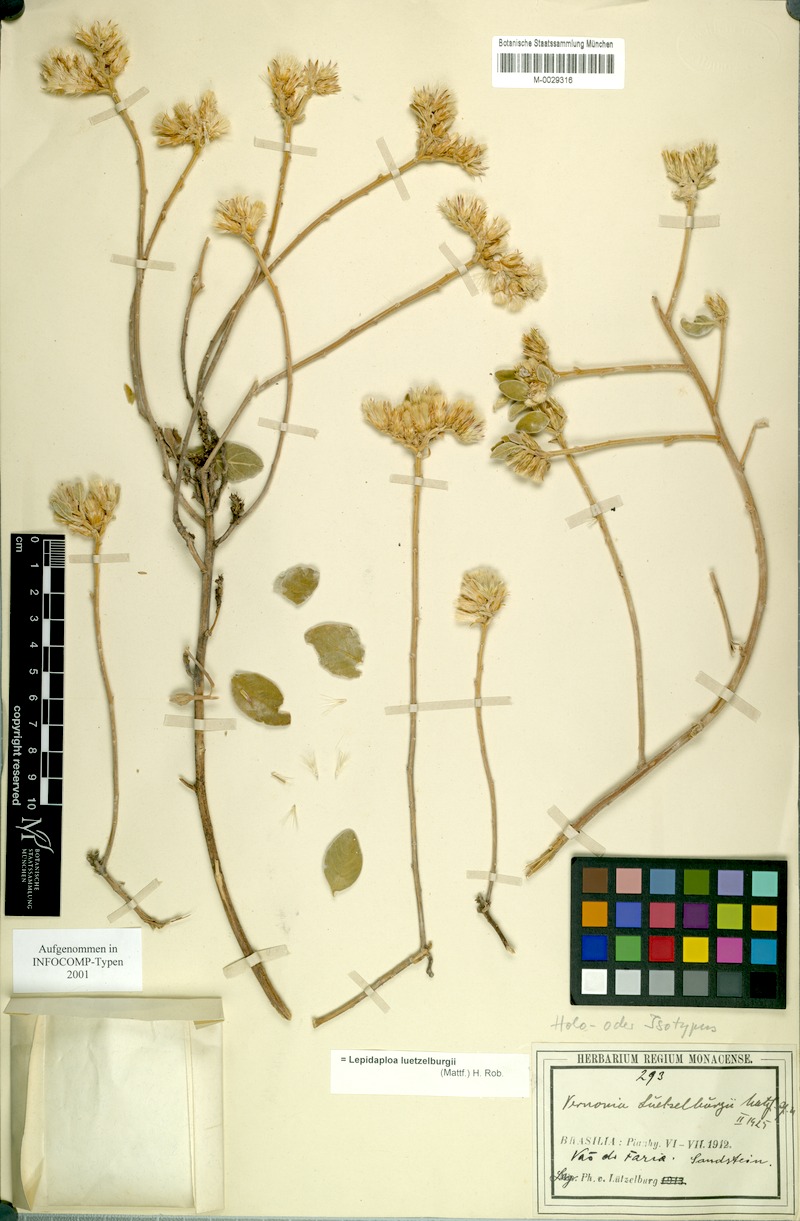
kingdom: Plantae
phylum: Tracheophyta
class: Magnoliopsida
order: Asterales
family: Asteraceae
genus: Lepidaploa
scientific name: Lepidaploa luetzelburgii
